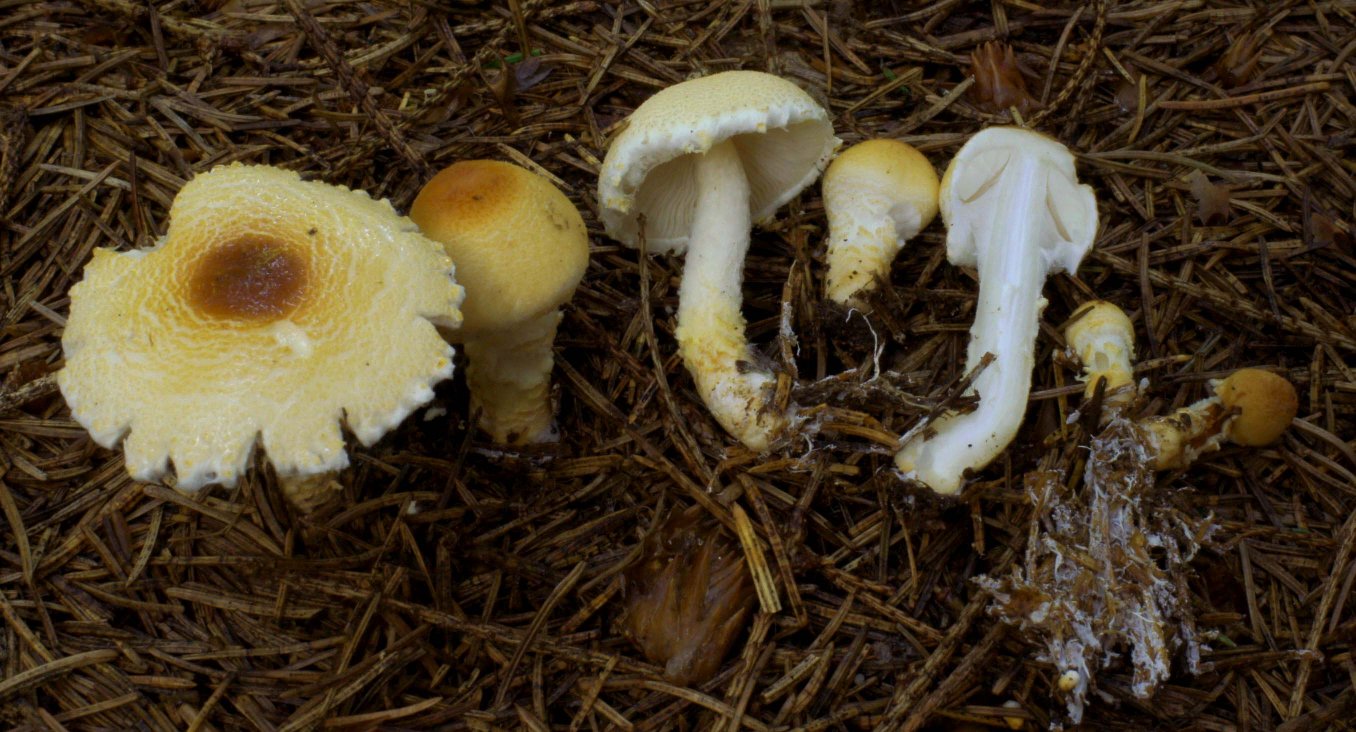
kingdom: Fungi
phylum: Basidiomycota
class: Agaricomycetes
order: Agaricales
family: Agaricaceae
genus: Lepiota
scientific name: Lepiota magnispora
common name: gulfnugget parasolhat
